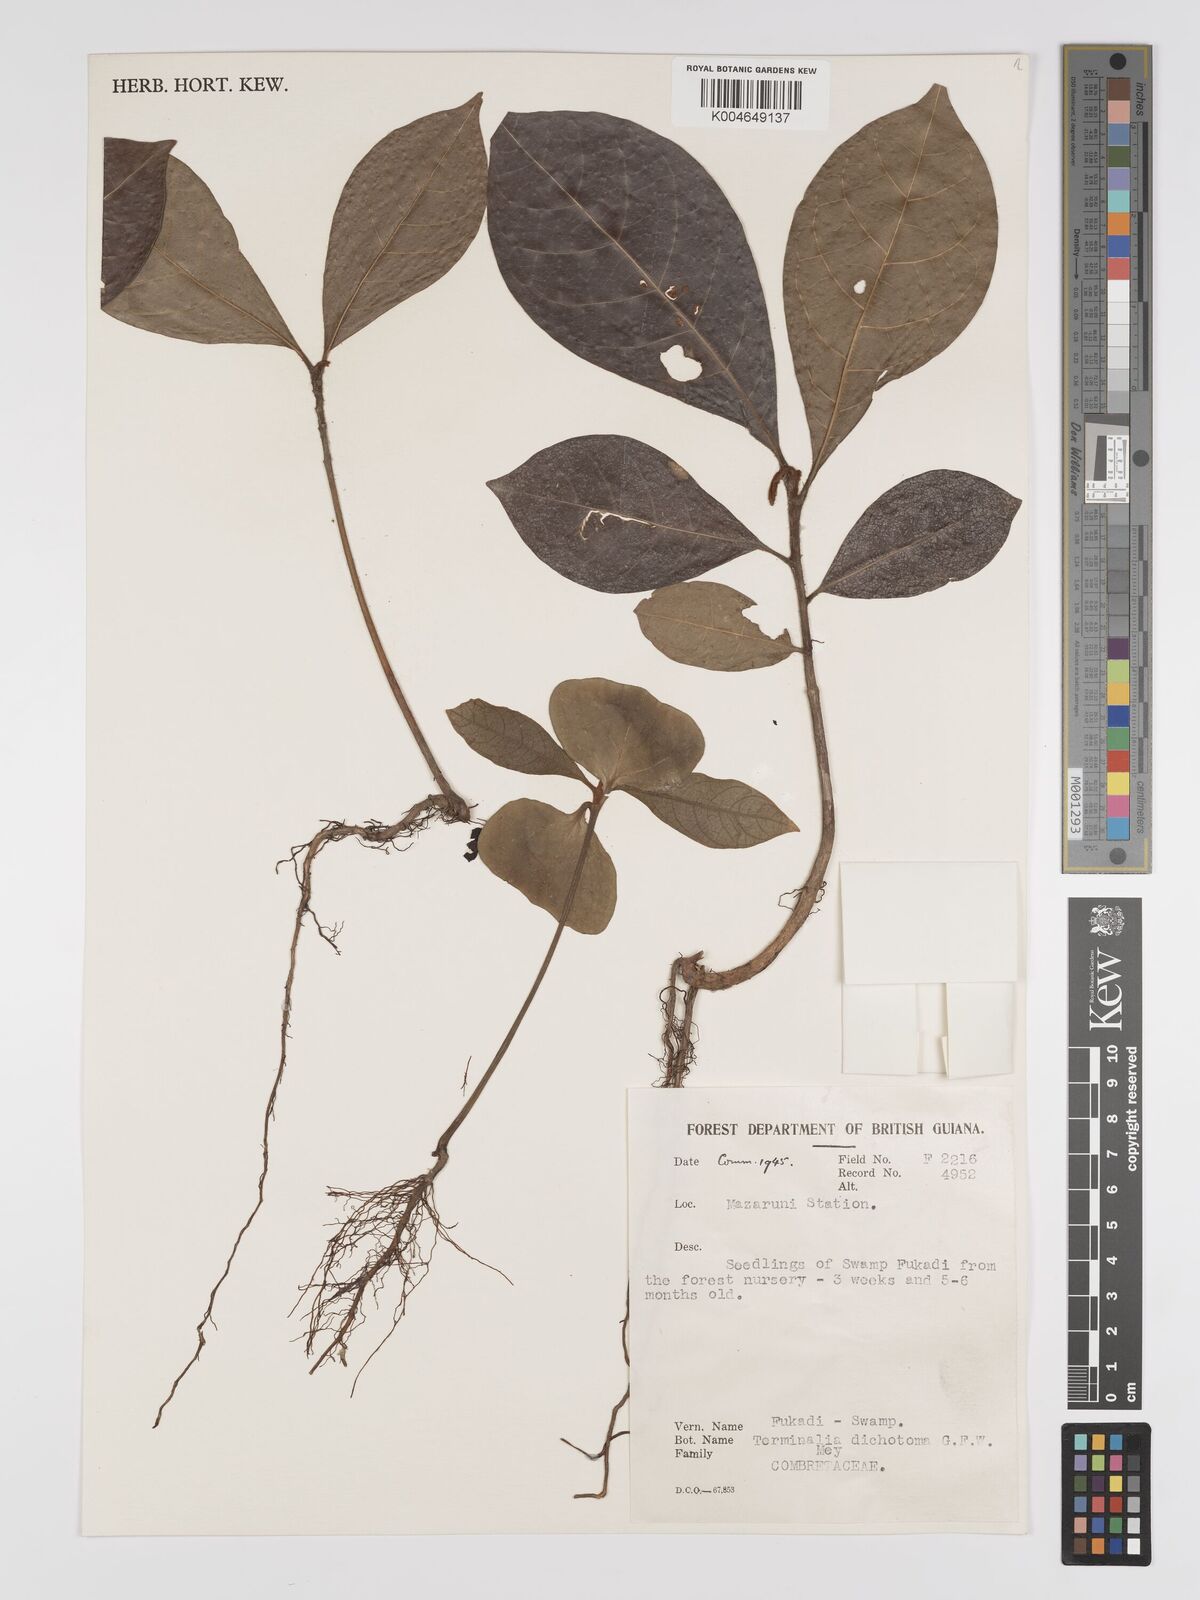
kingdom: Plantae
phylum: Tracheophyta
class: Magnoliopsida
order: Myrtales
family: Combretaceae
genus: Terminalia
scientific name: Terminalia dichotoma
